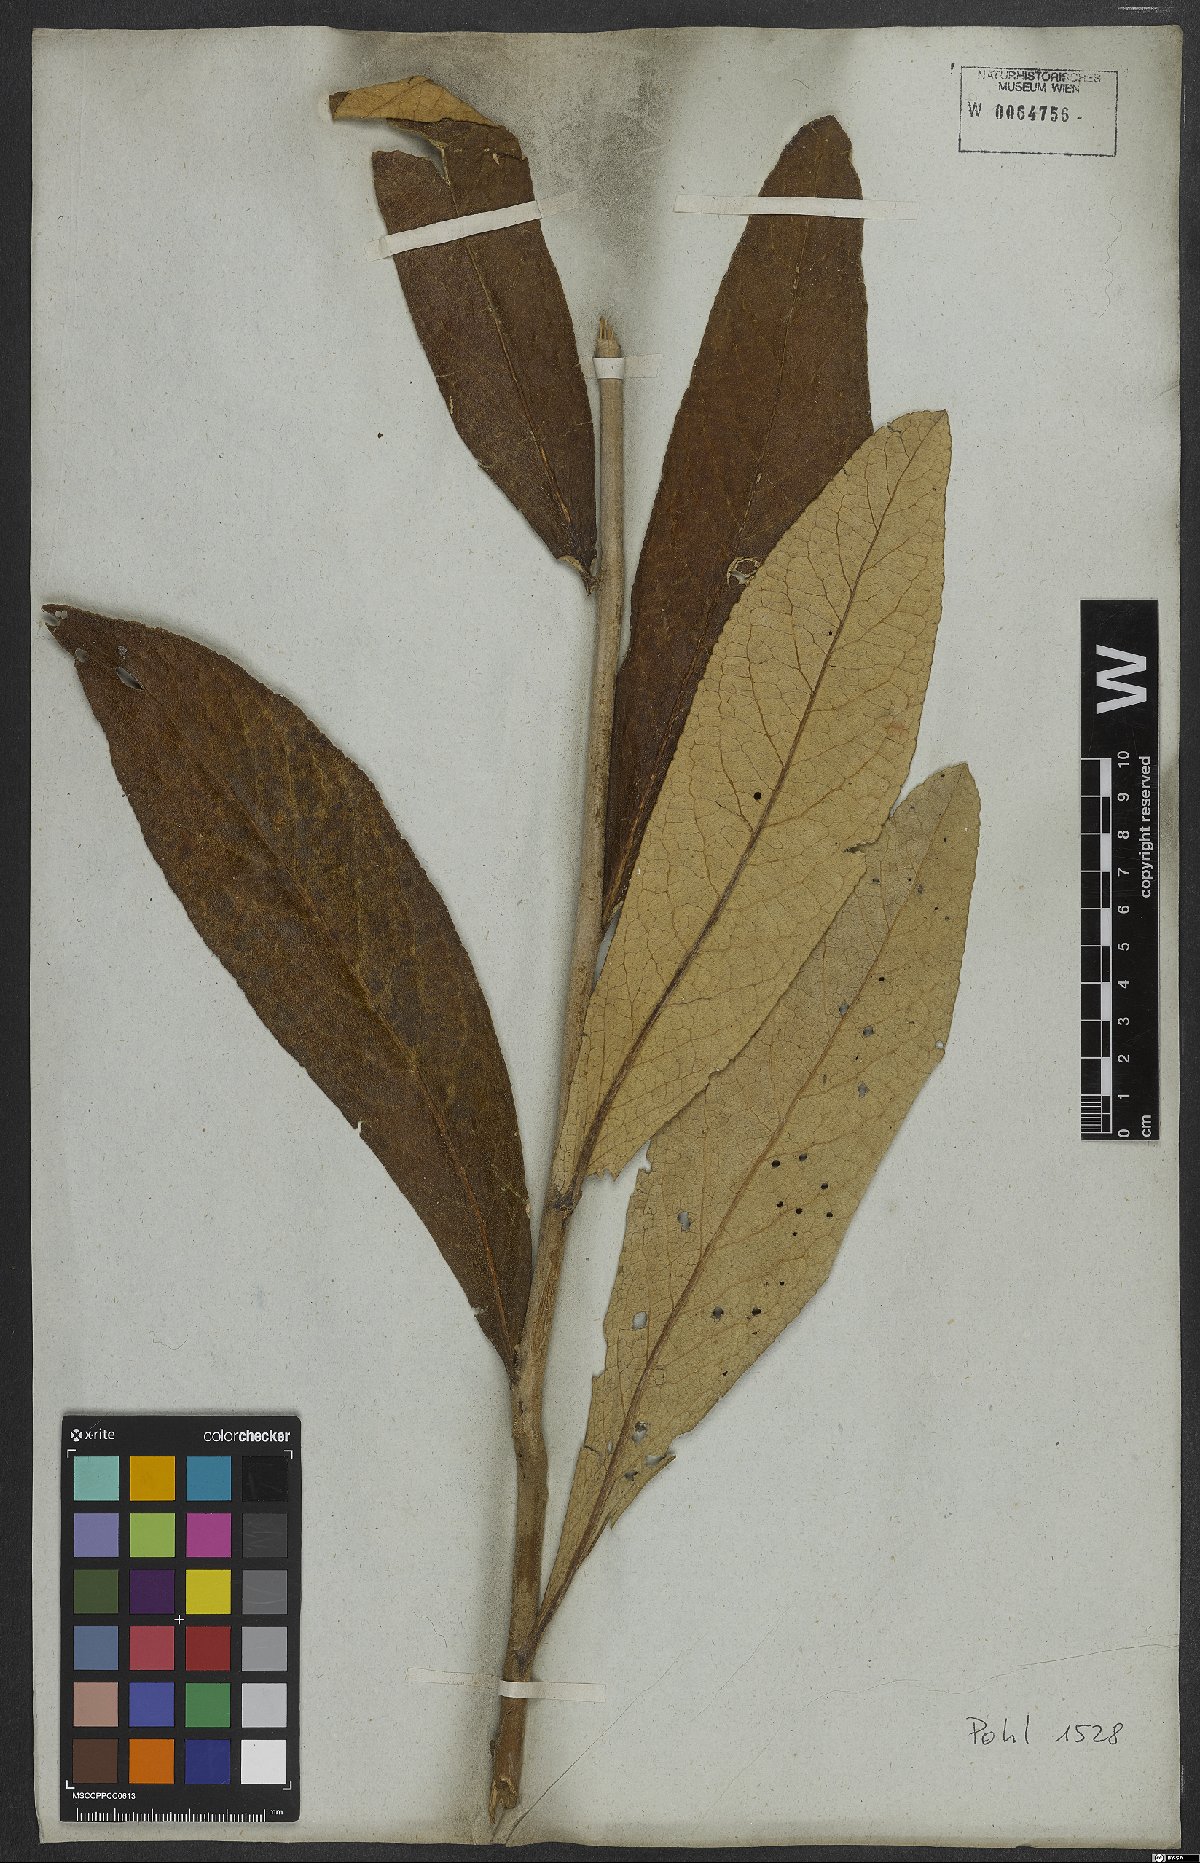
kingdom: Plantae
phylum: Tracheophyta
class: Magnoliopsida
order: Asterales
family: Asteraceae
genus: Vernonia
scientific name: Vernonia
